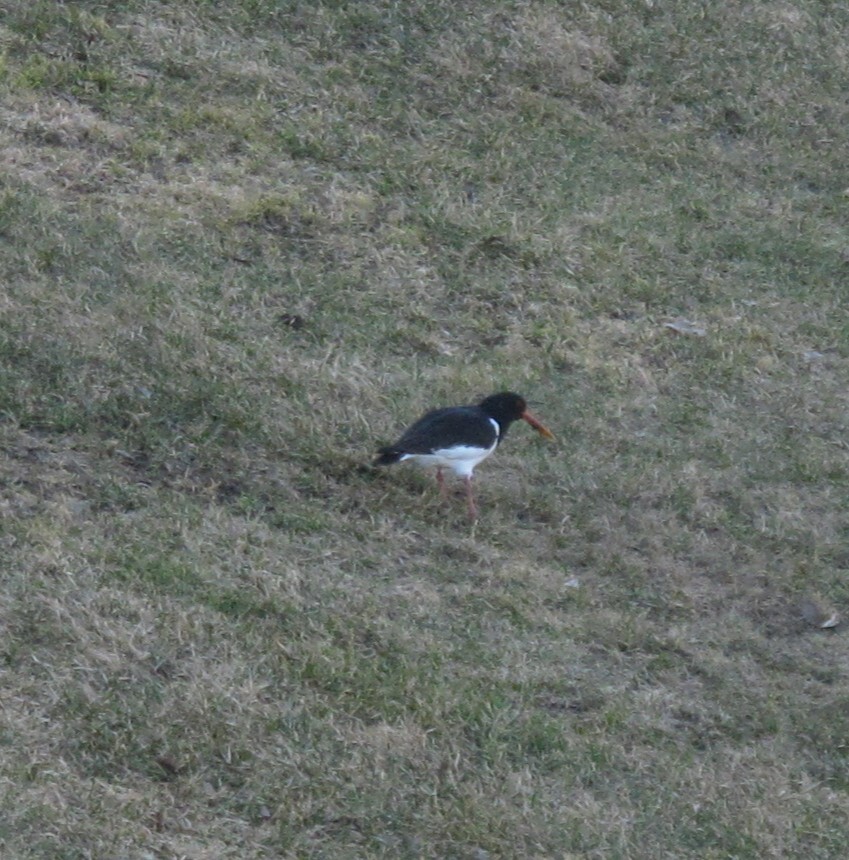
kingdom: Animalia
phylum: Chordata
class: Aves
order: Charadriiformes
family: Haematopodidae
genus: Haematopus
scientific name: Haematopus ostralegus
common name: Eurasian oystercatcher
